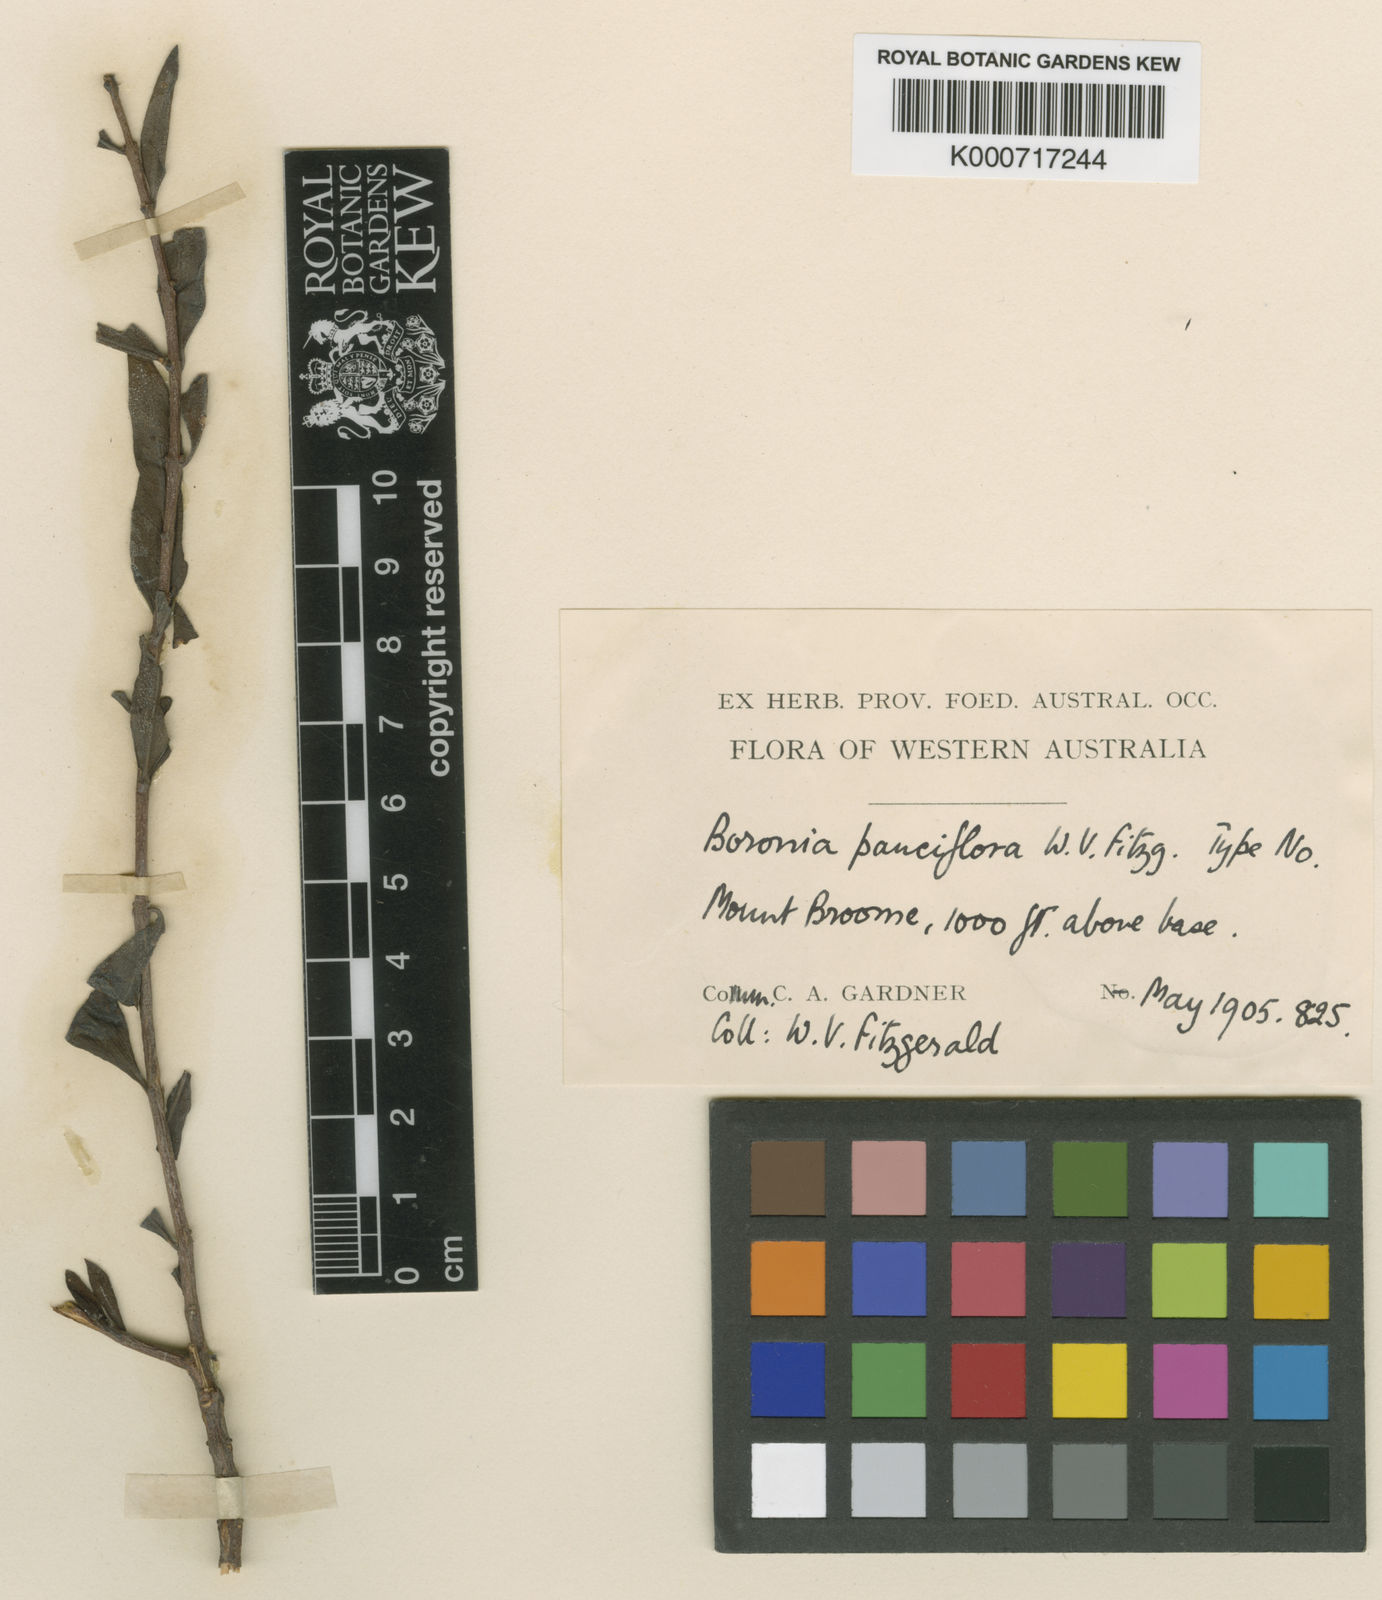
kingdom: Plantae
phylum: Tracheophyta
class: Magnoliopsida
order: Sapindales
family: Rutaceae
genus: Boronia
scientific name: Boronia pauciflora
